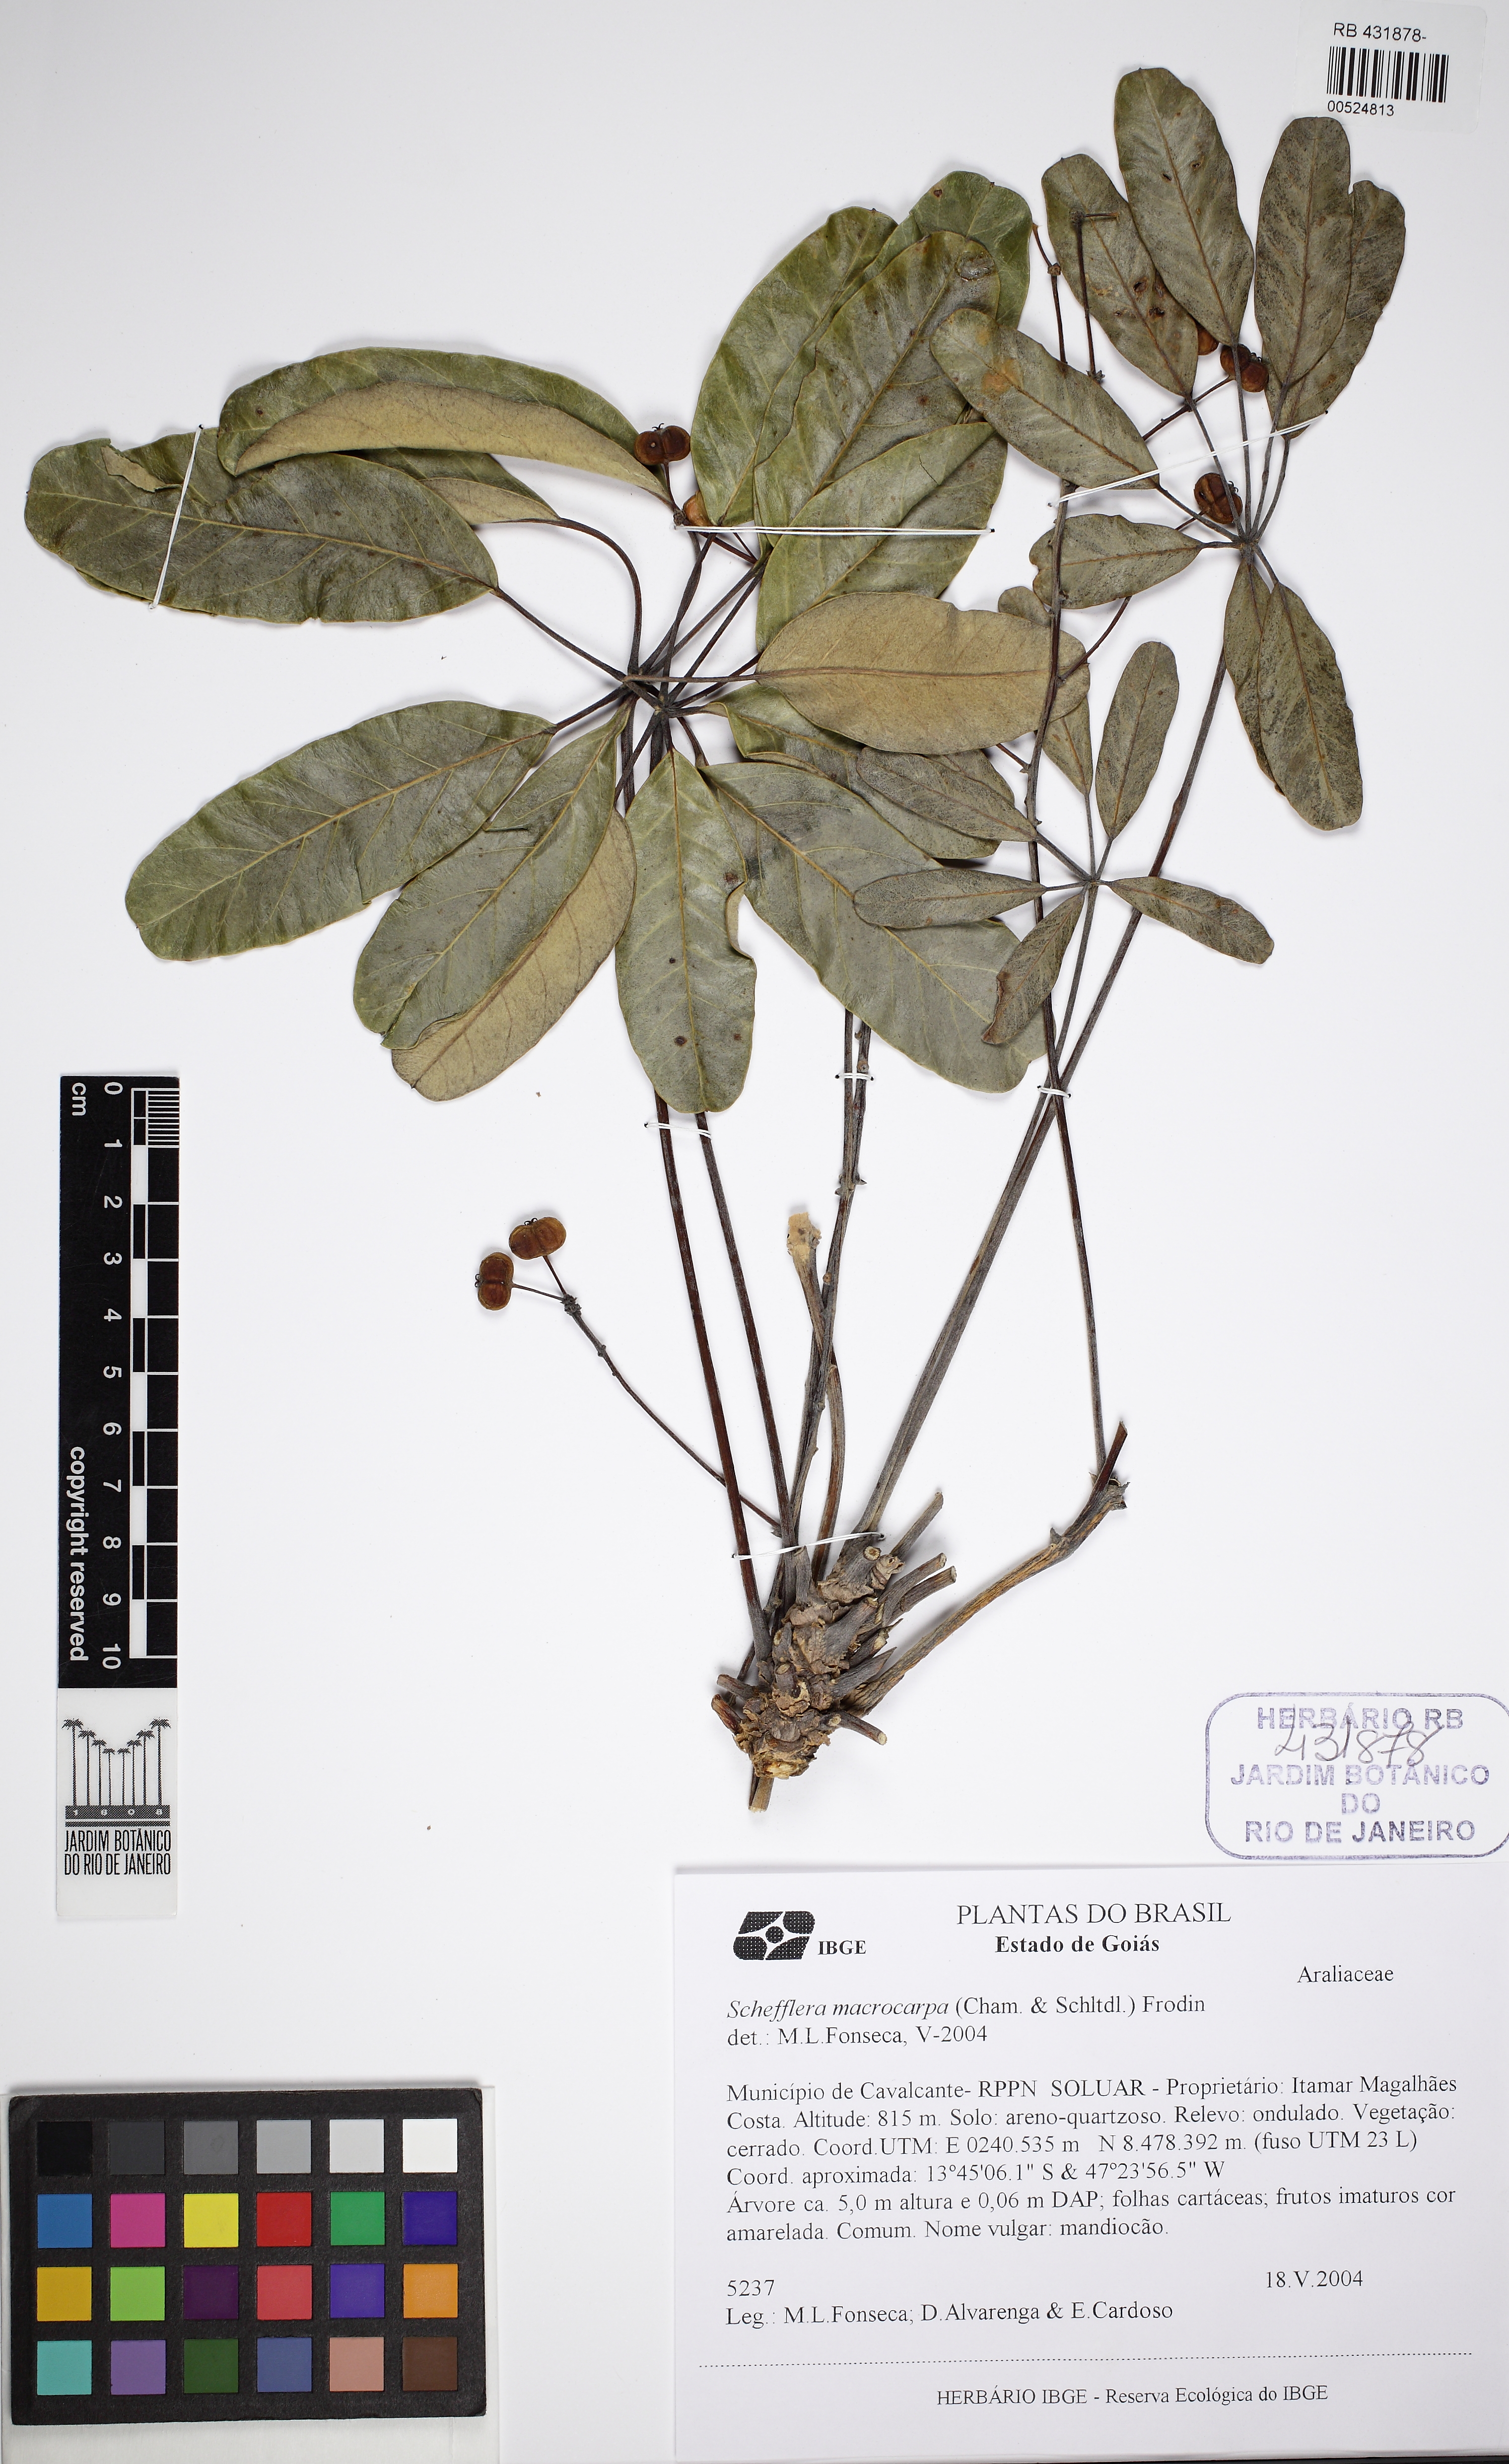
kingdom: Plantae
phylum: Tracheophyta
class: Magnoliopsida
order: Apiales
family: Araliaceae
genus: Didymopanax
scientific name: Didymopanax macrocarpus
